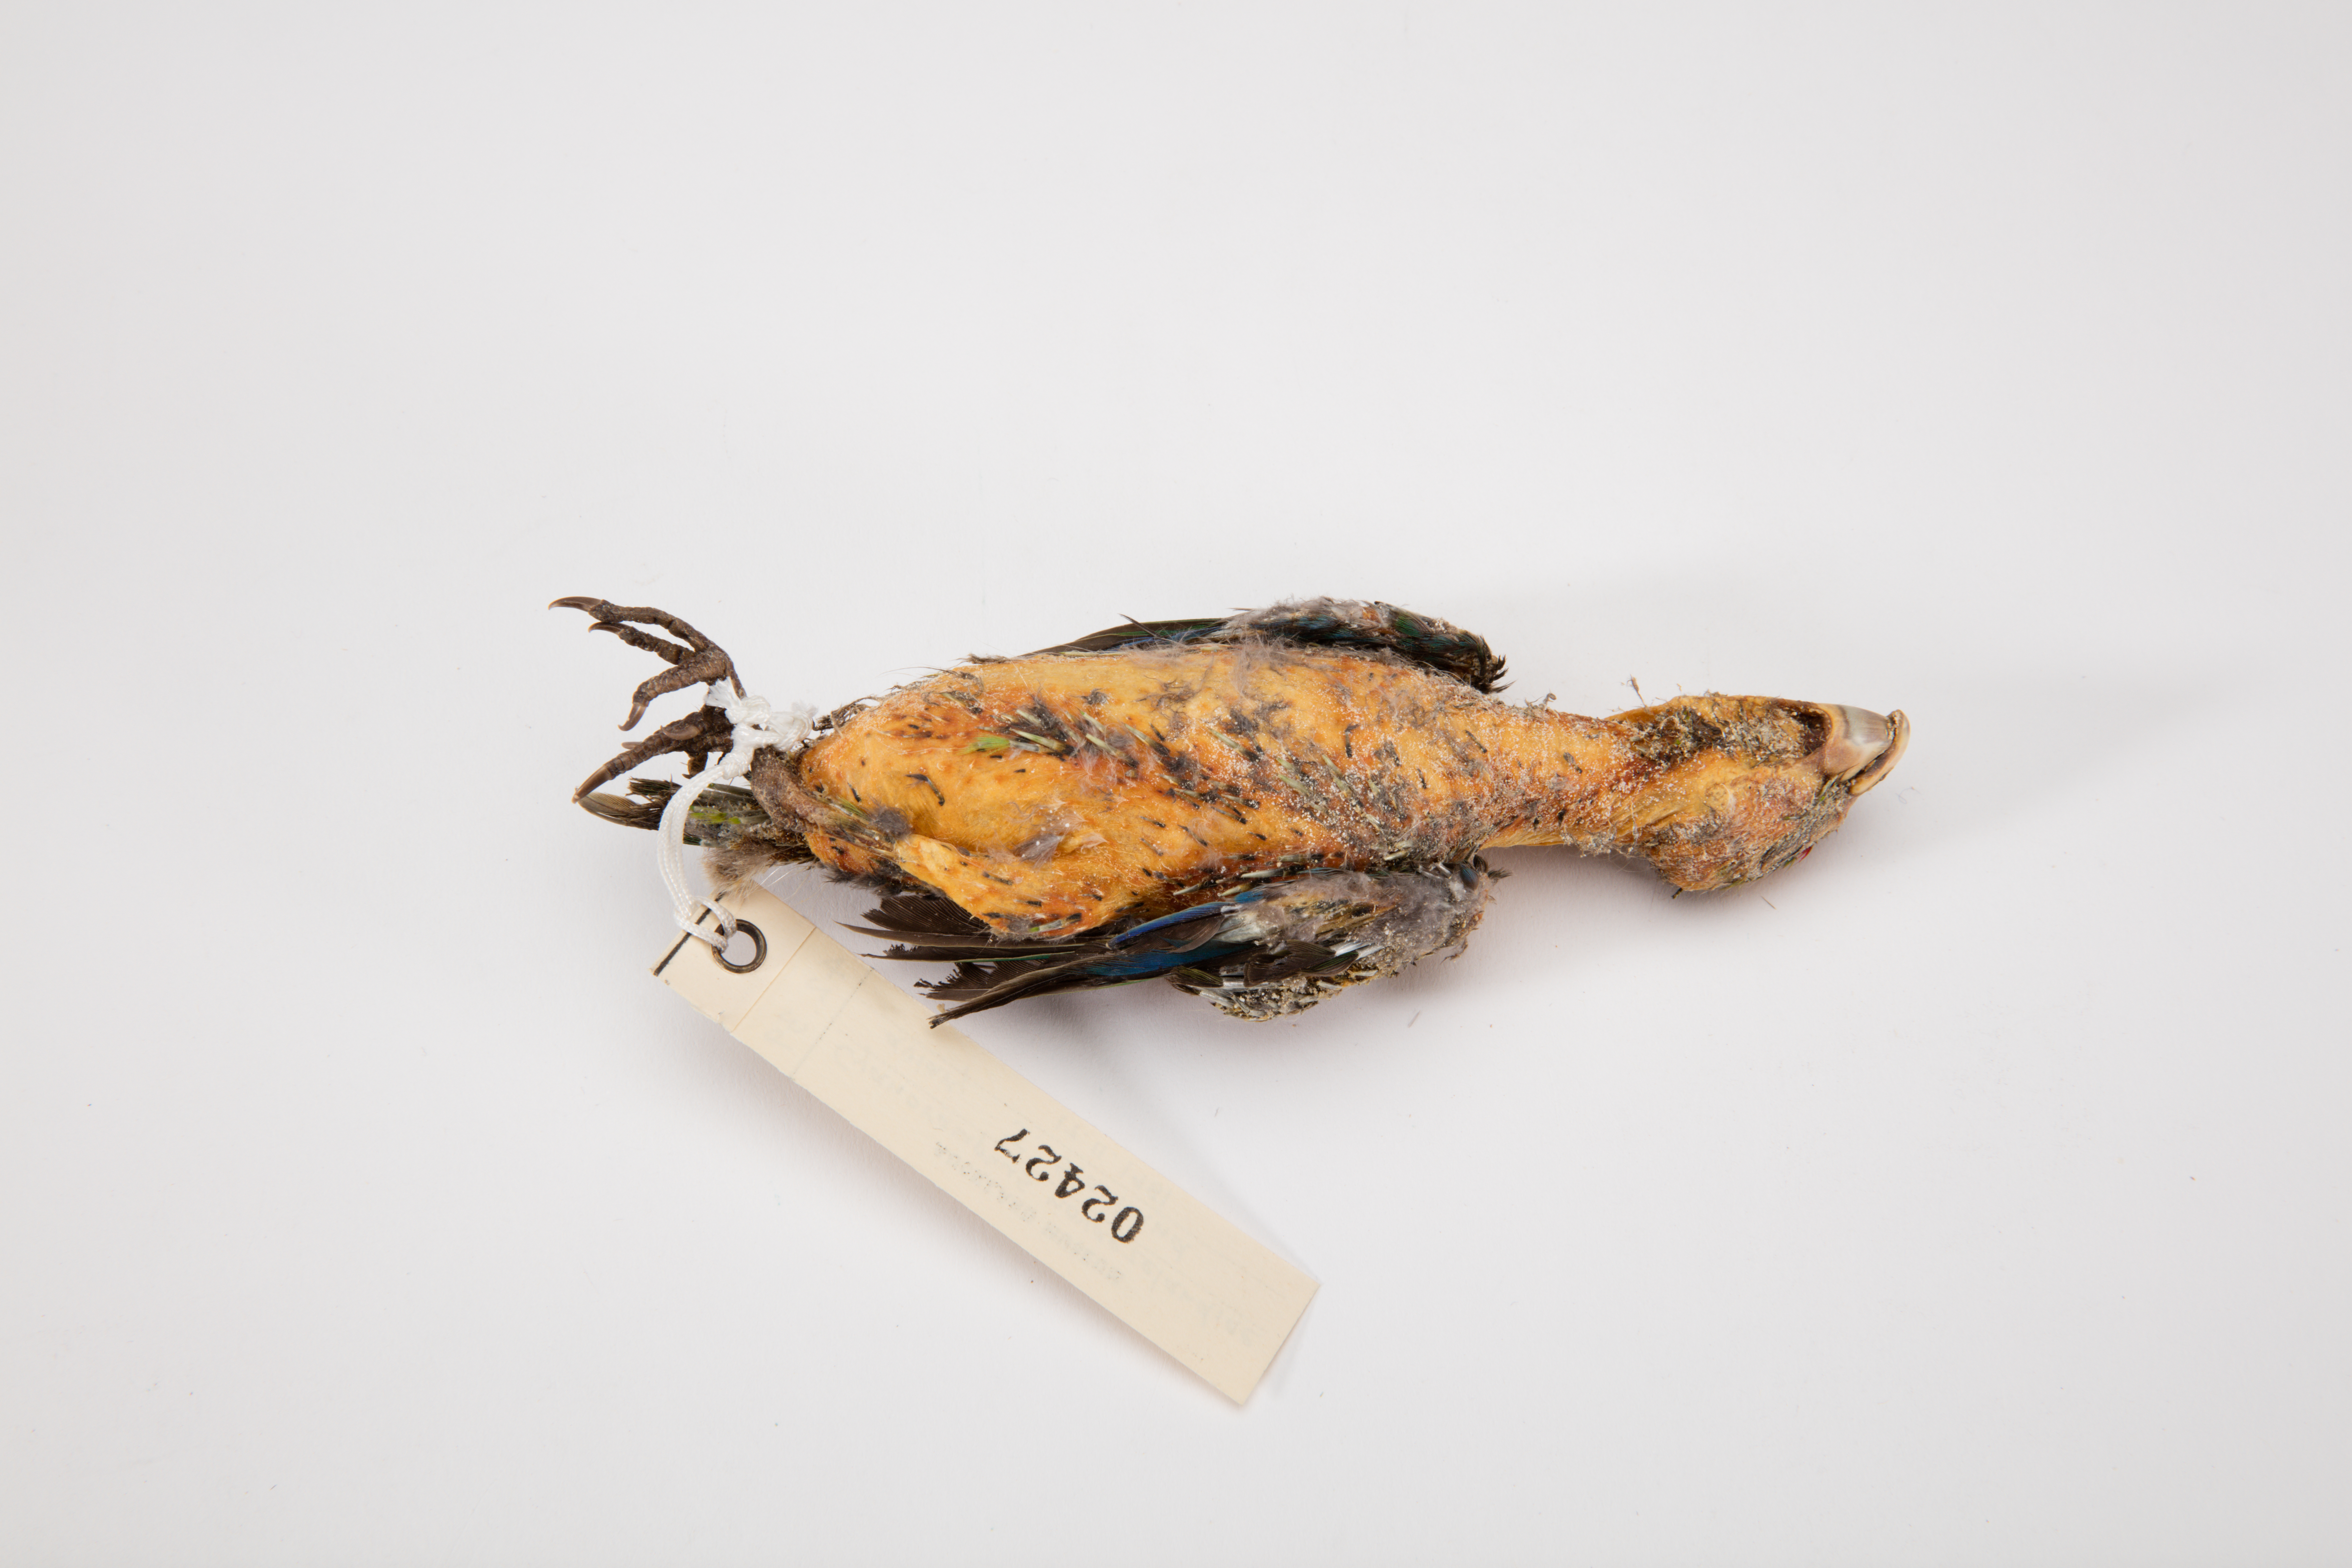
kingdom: Animalia
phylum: Chordata
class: Aves
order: Psittaciformes
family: Psittacidae
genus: Cyanoramphus
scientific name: Cyanoramphus novaezelandiae
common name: Red-fronted parakeet
